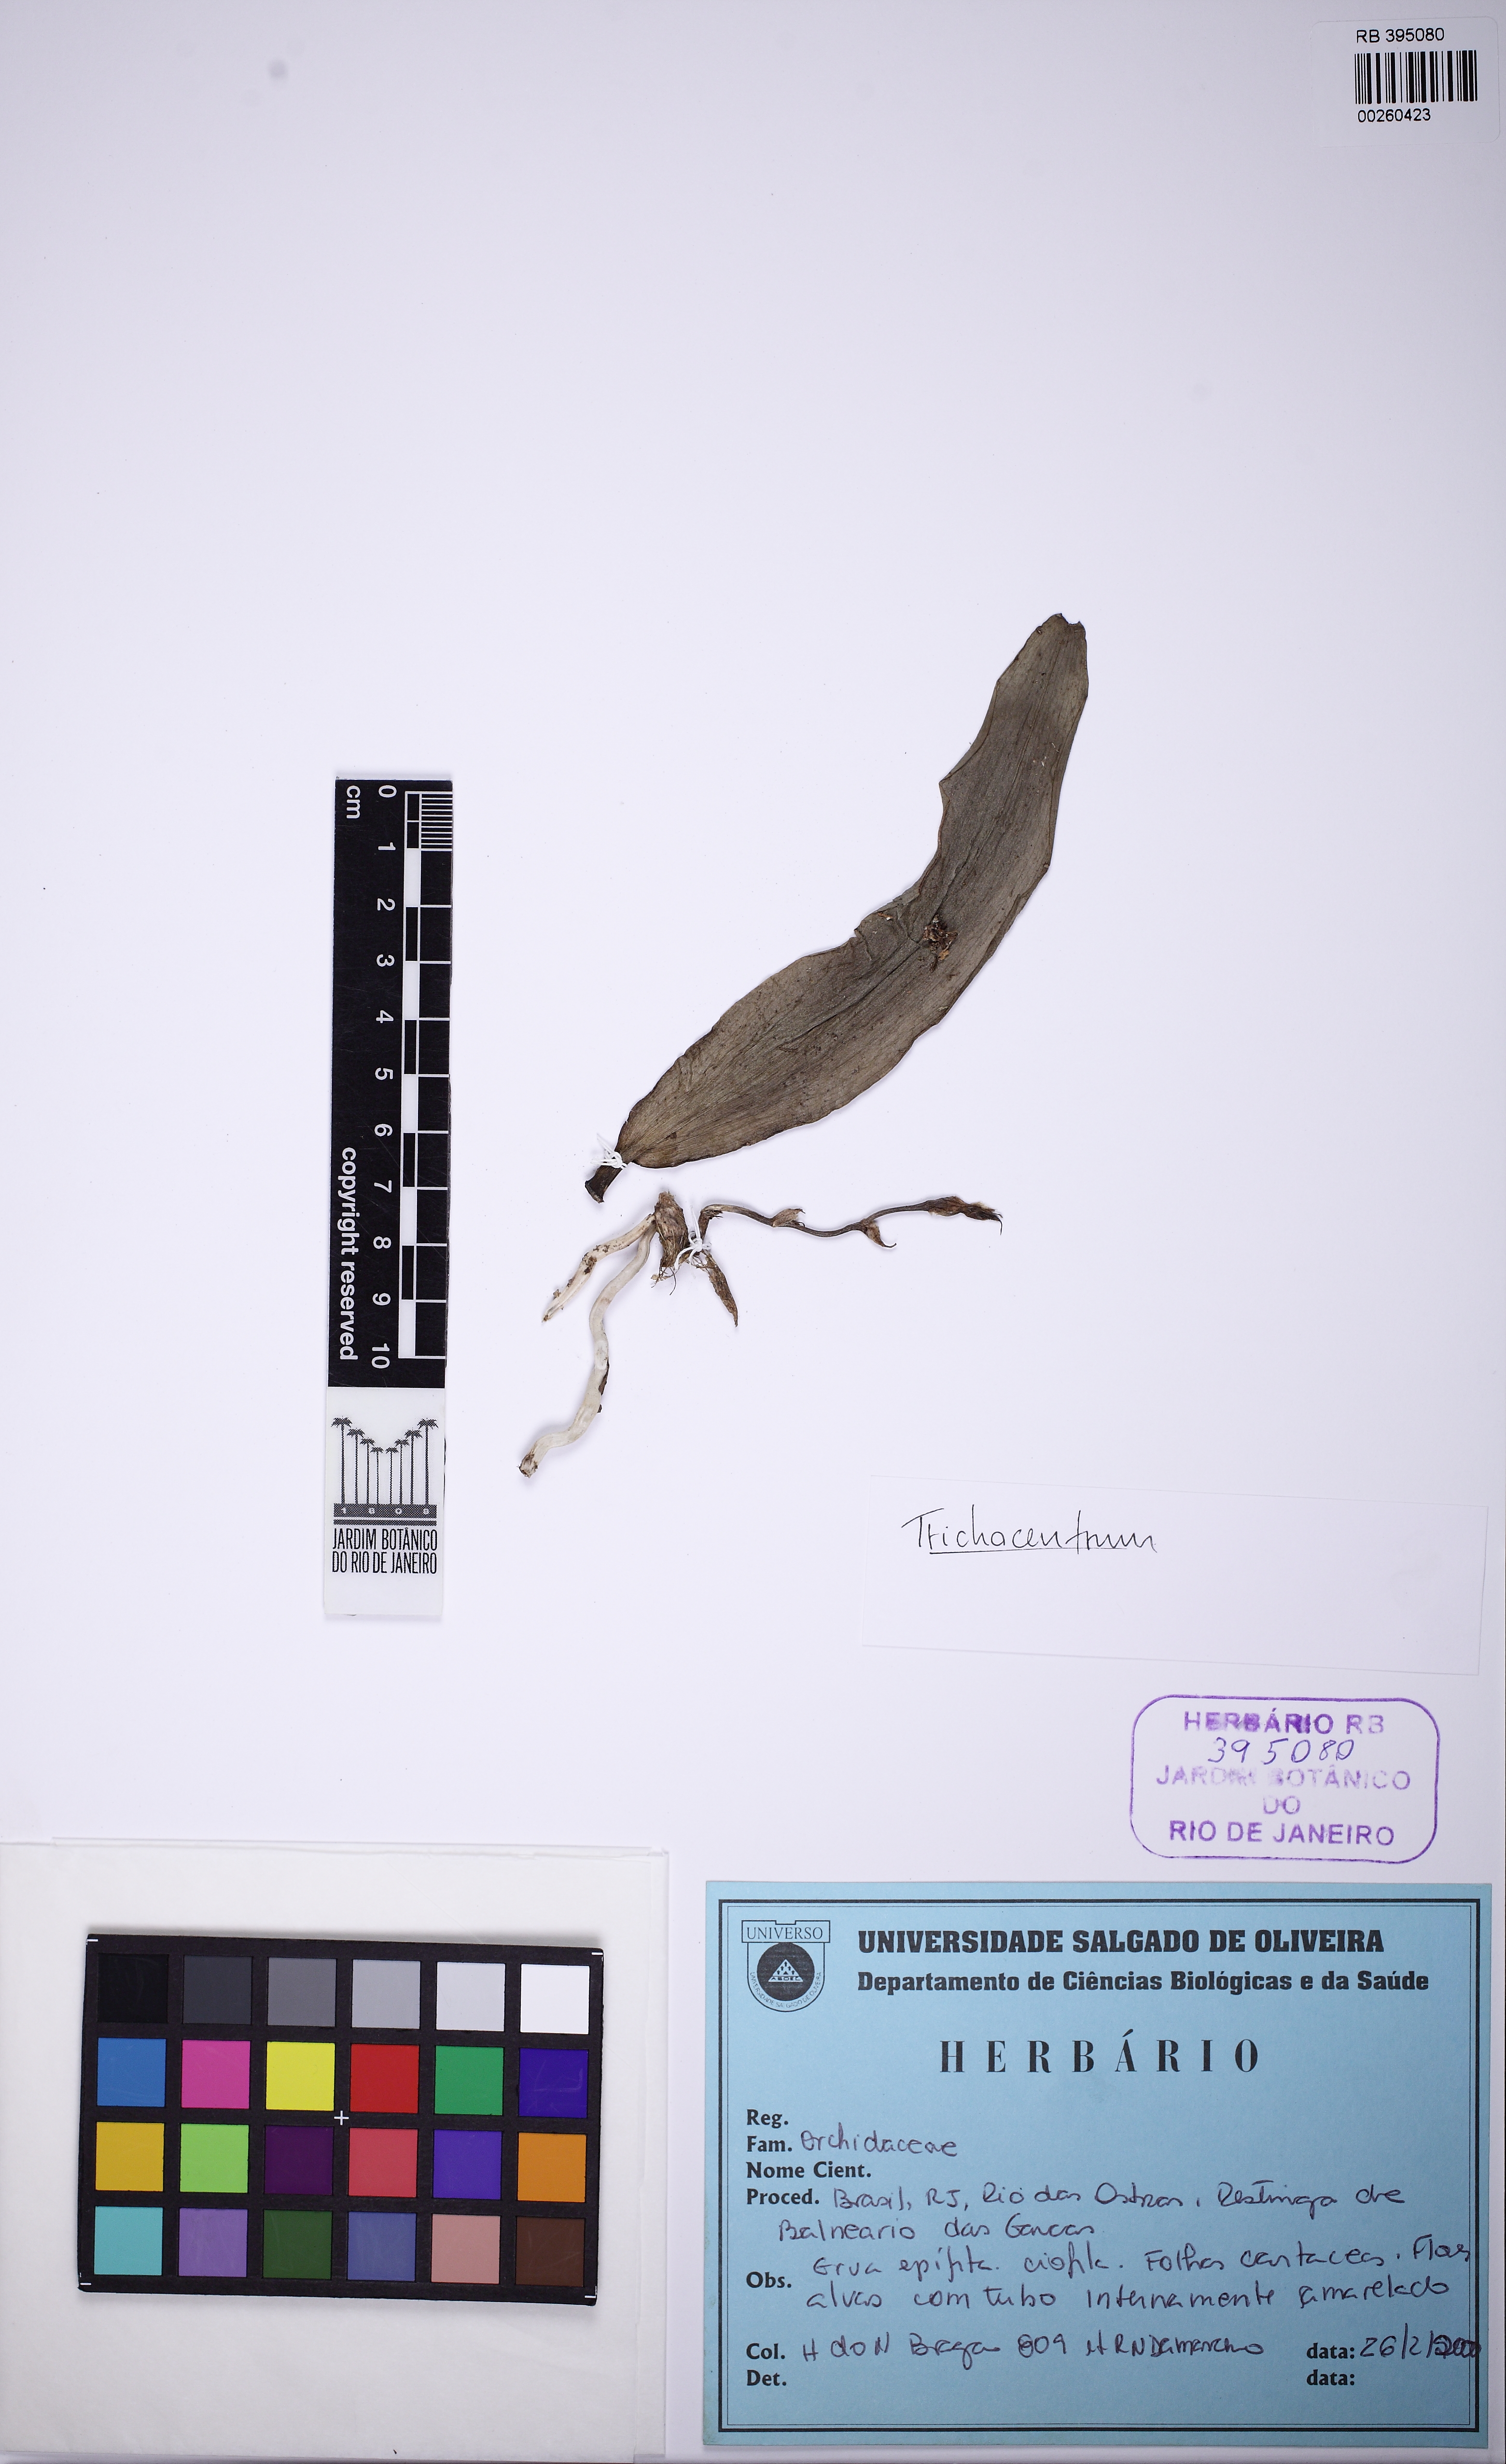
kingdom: Plantae
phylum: Tracheophyta
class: Liliopsida
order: Asparagales
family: Orchidaceae
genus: Trichocentrum
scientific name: Trichocentrum fuscum
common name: Mule-ear orchid
